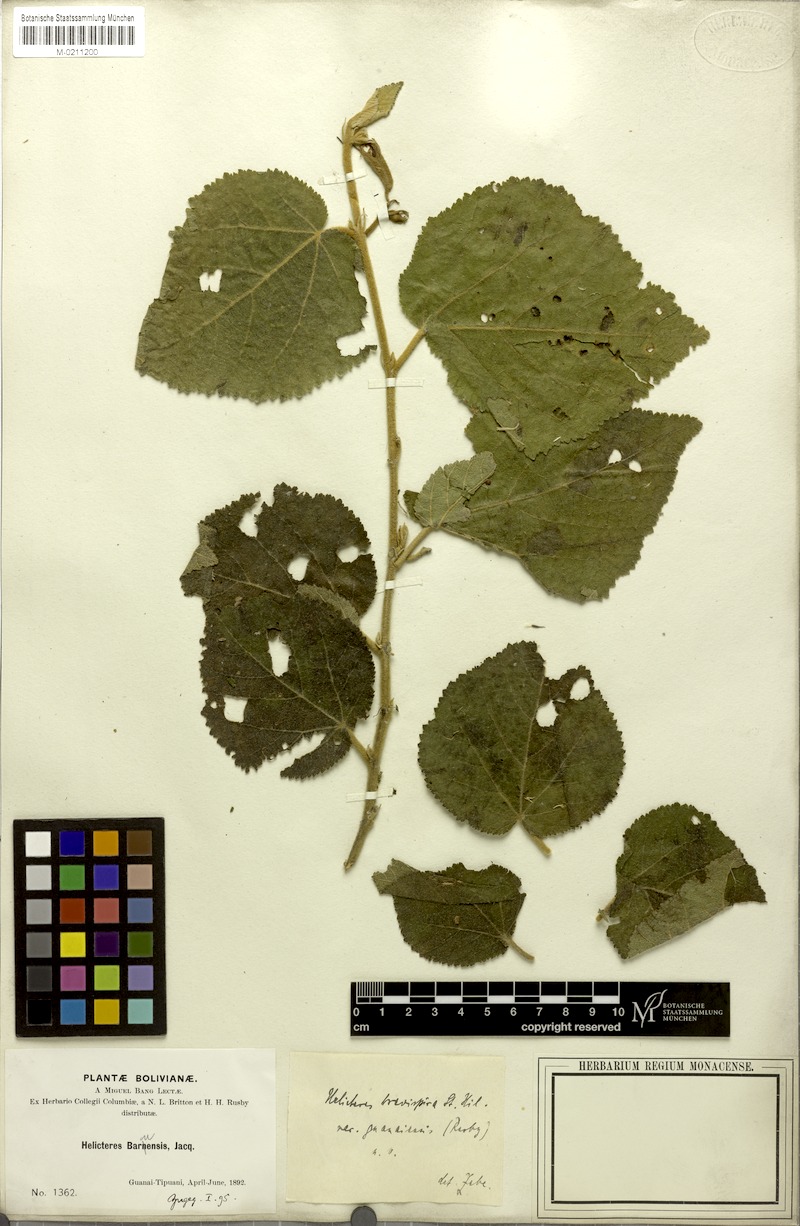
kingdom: Plantae
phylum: Tracheophyta
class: Magnoliopsida
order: Malvales
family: Malvaceae
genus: Helicteres
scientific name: Helicteres brevispira
